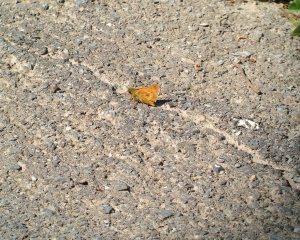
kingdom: Animalia
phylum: Arthropoda
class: Insecta
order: Lepidoptera
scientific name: Lepidoptera
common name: Butterflies
